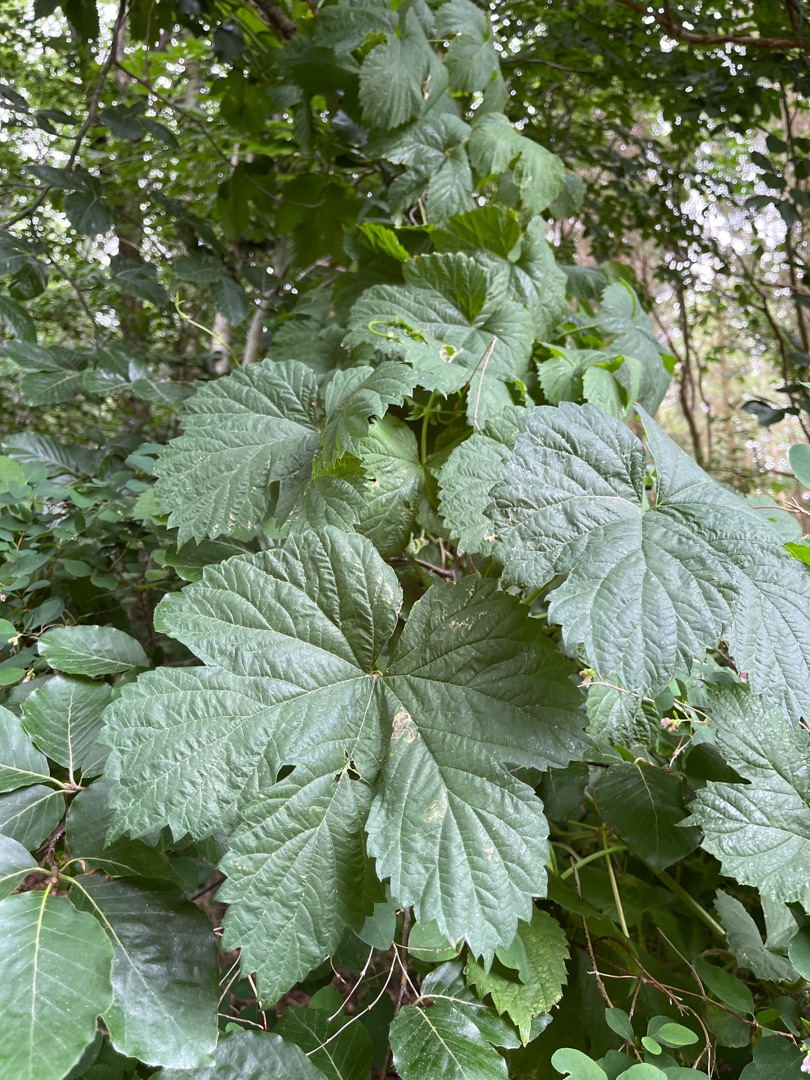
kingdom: Plantae
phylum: Tracheophyta
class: Magnoliopsida
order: Rosales
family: Cannabaceae
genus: Humulus
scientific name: Humulus lupulus
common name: Humle
